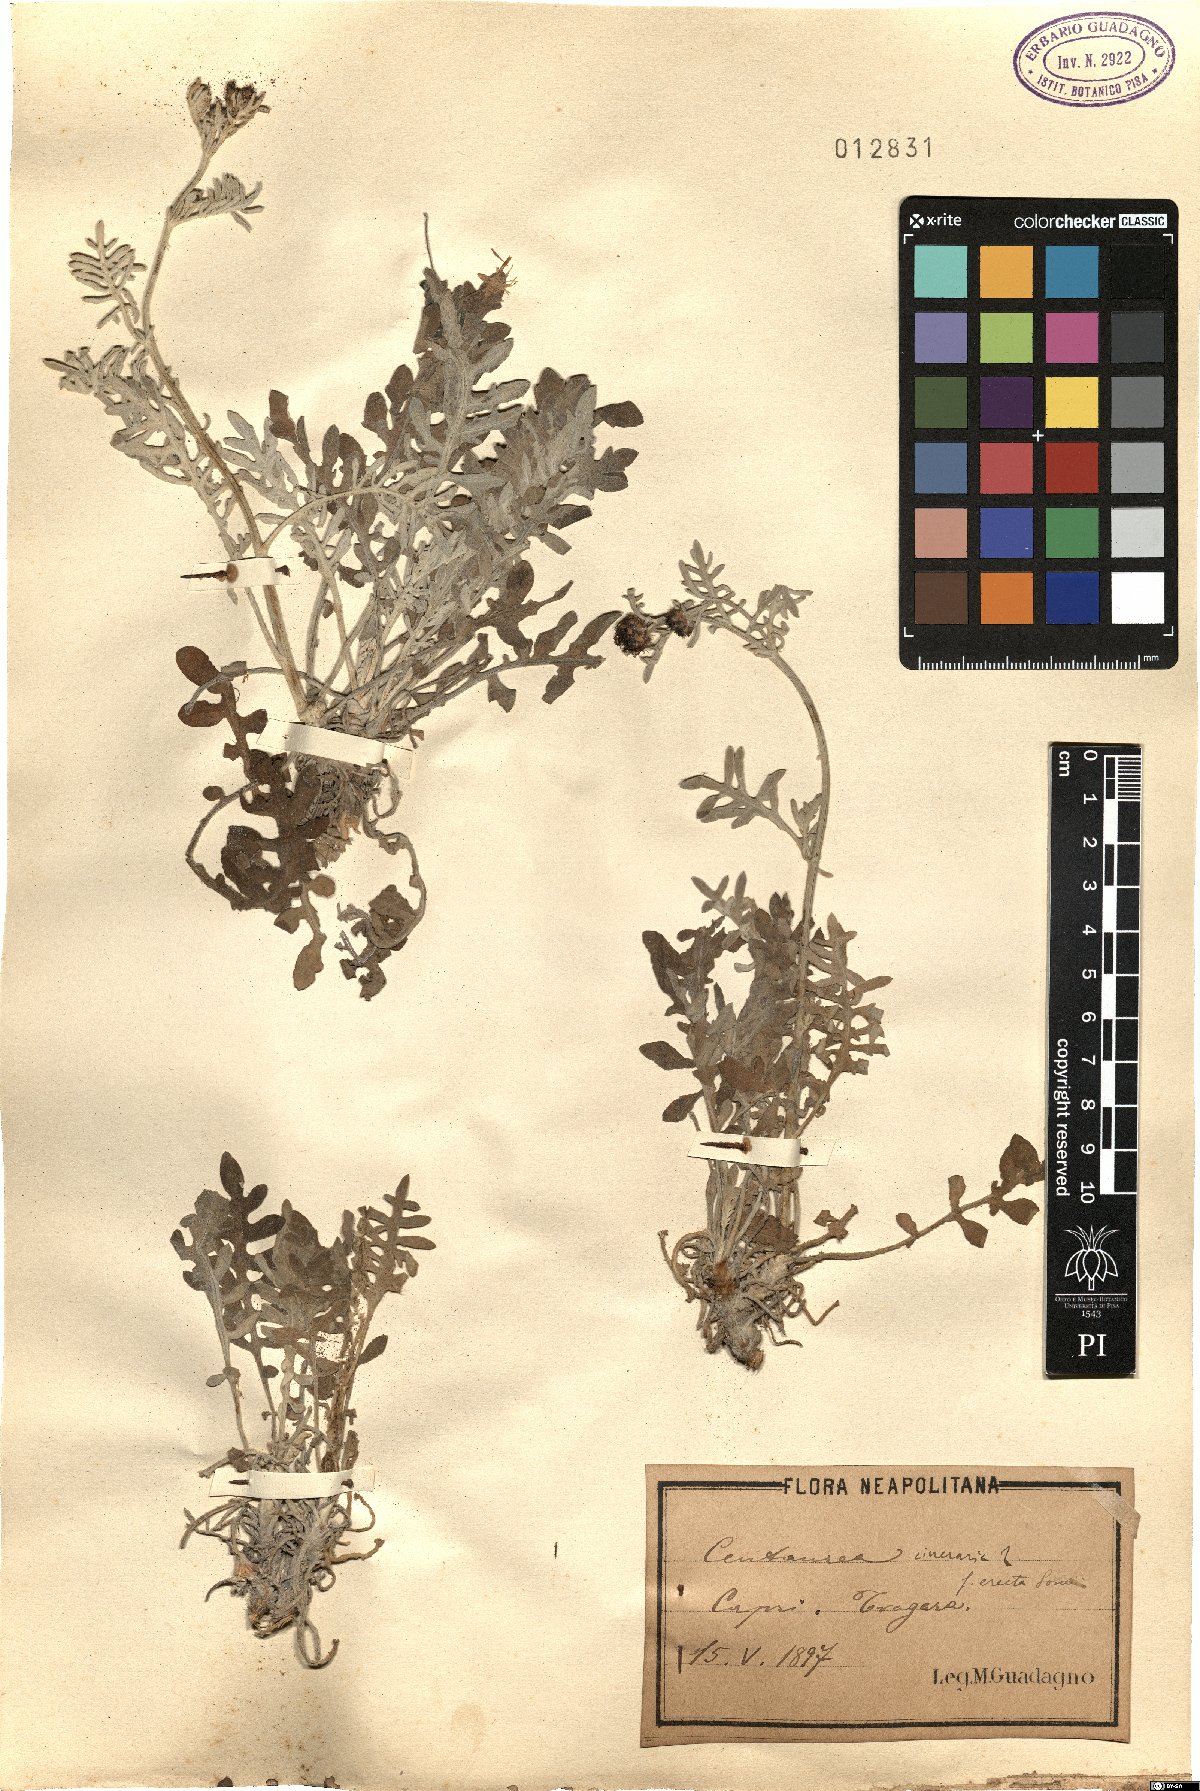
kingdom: Plantae
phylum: Tracheophyta
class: Magnoliopsida
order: Asterales
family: Asteraceae
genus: Centaurea
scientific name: Centaurea cineraria
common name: Dusty miller
